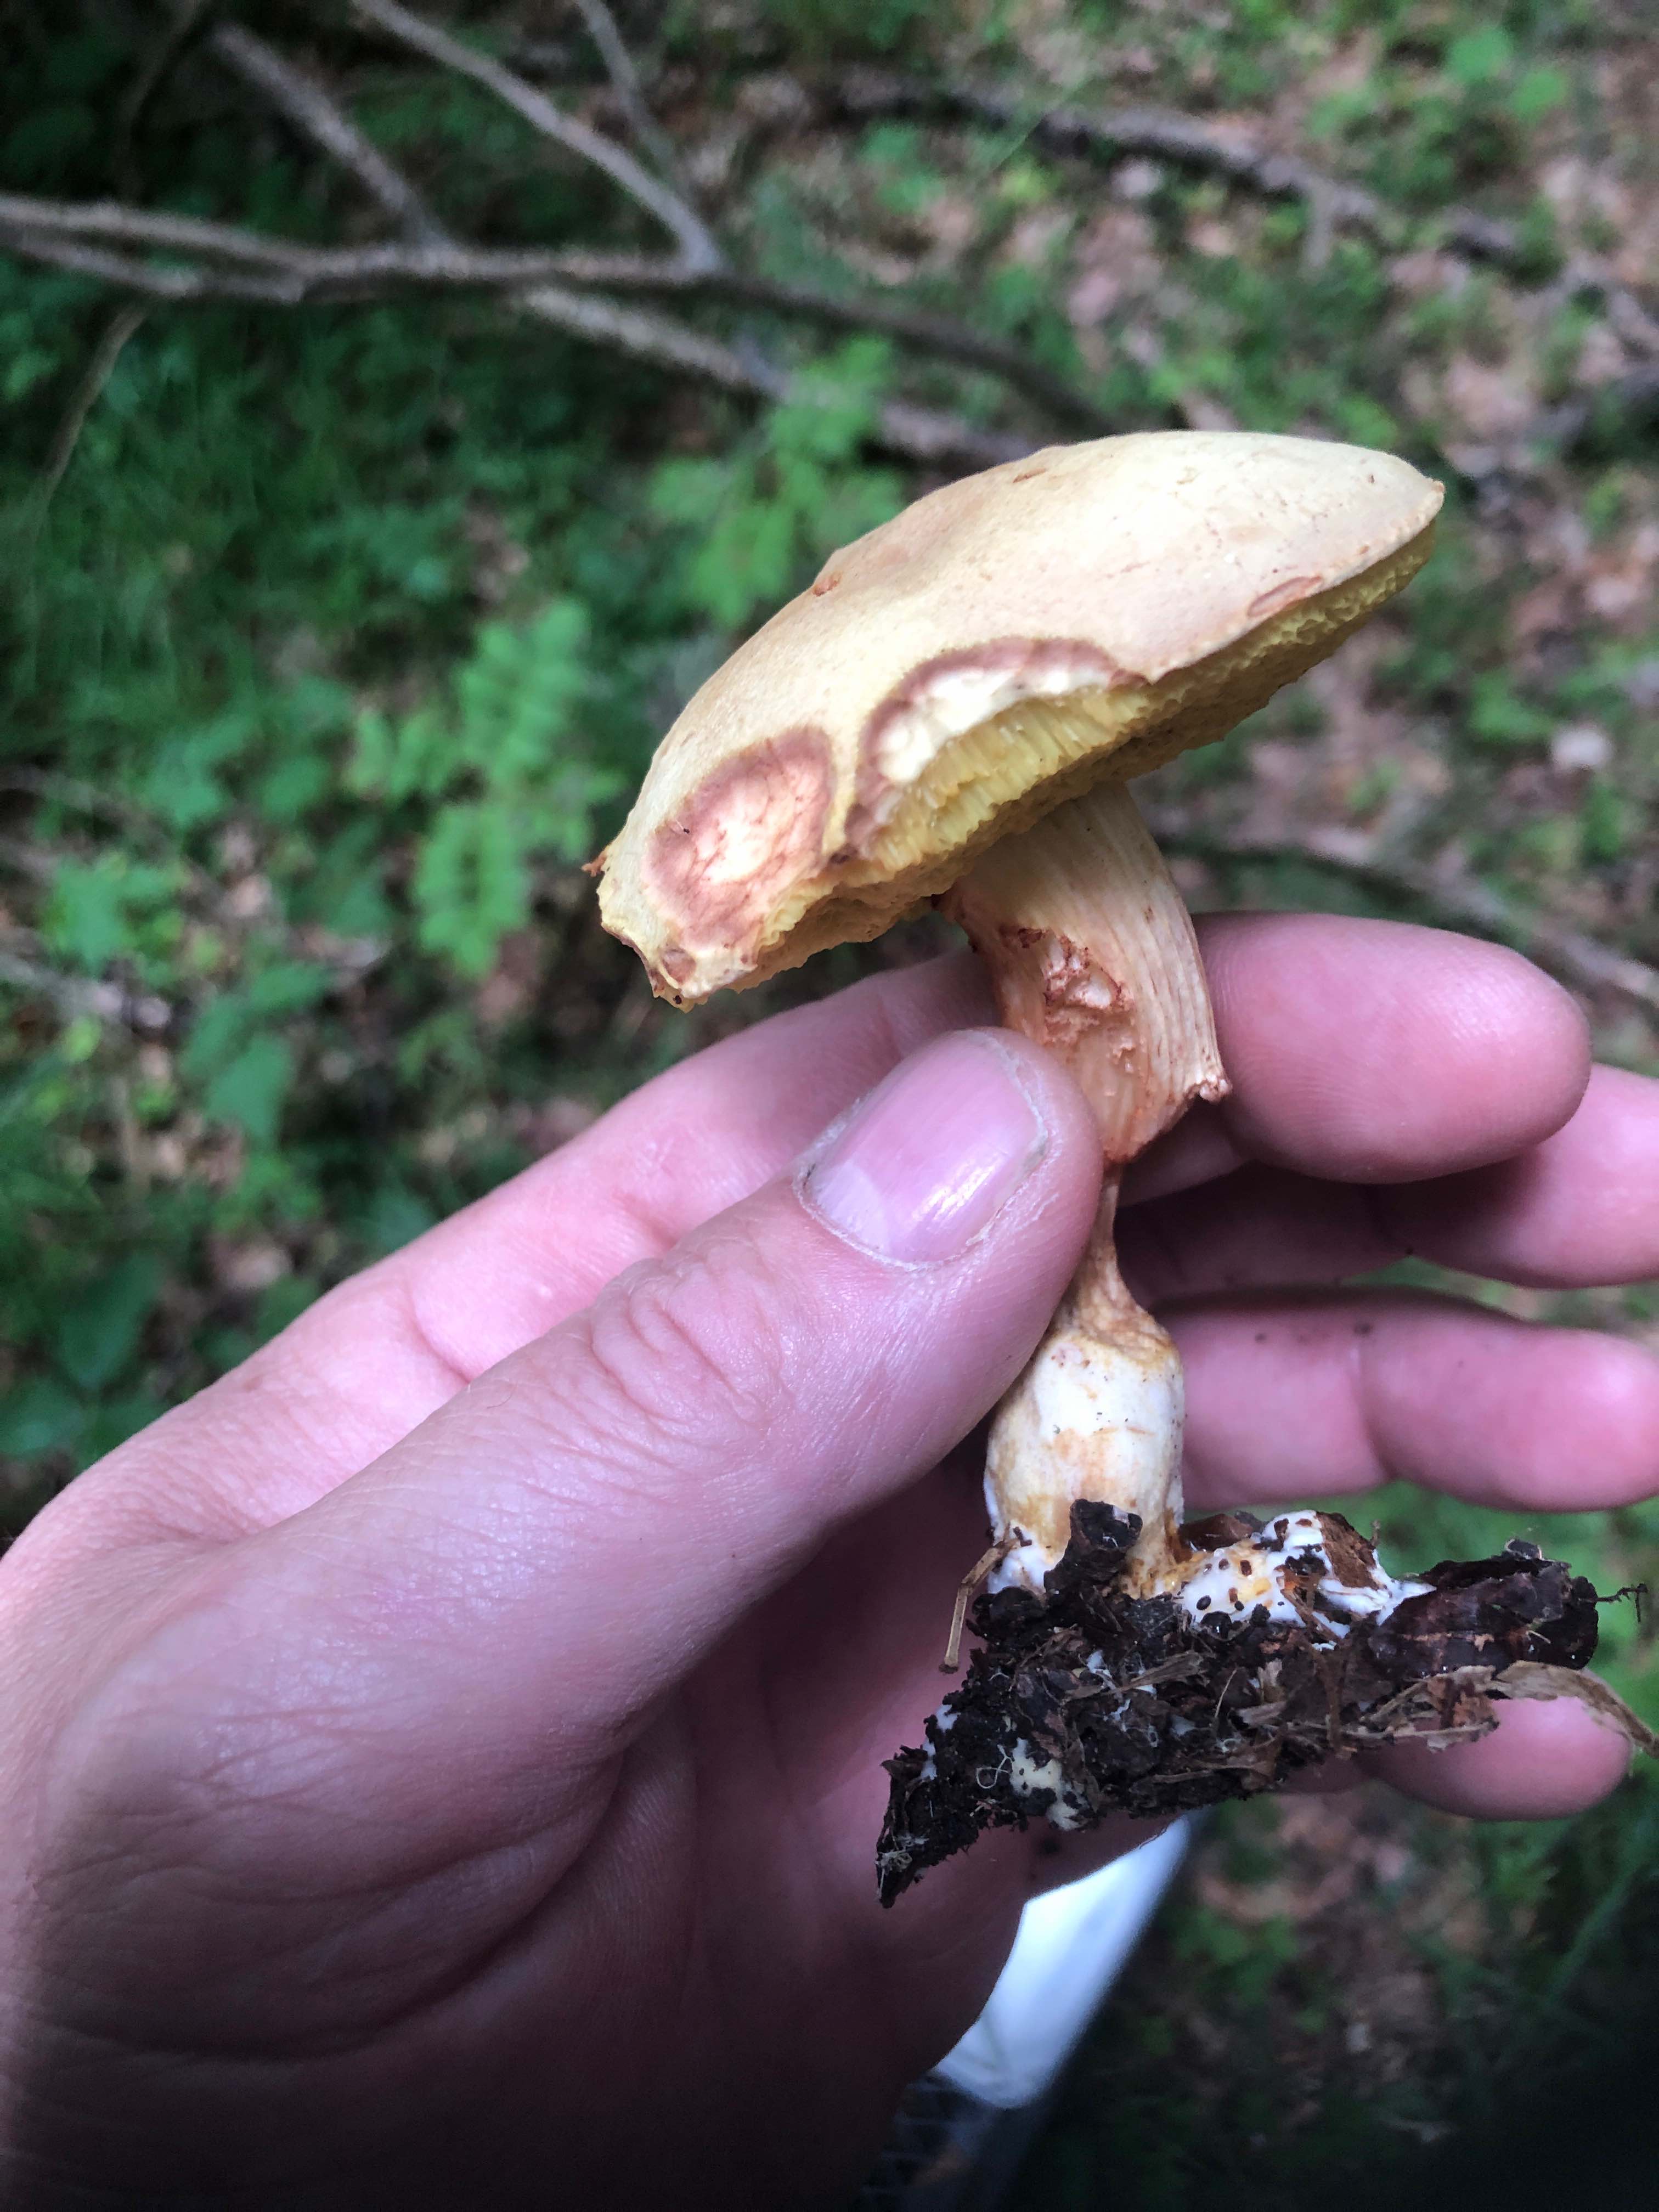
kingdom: Fungi
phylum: Basidiomycota
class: Agaricomycetes
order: Boletales
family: Boletaceae
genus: Xerocomus
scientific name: Xerocomus
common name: filtrørhat
